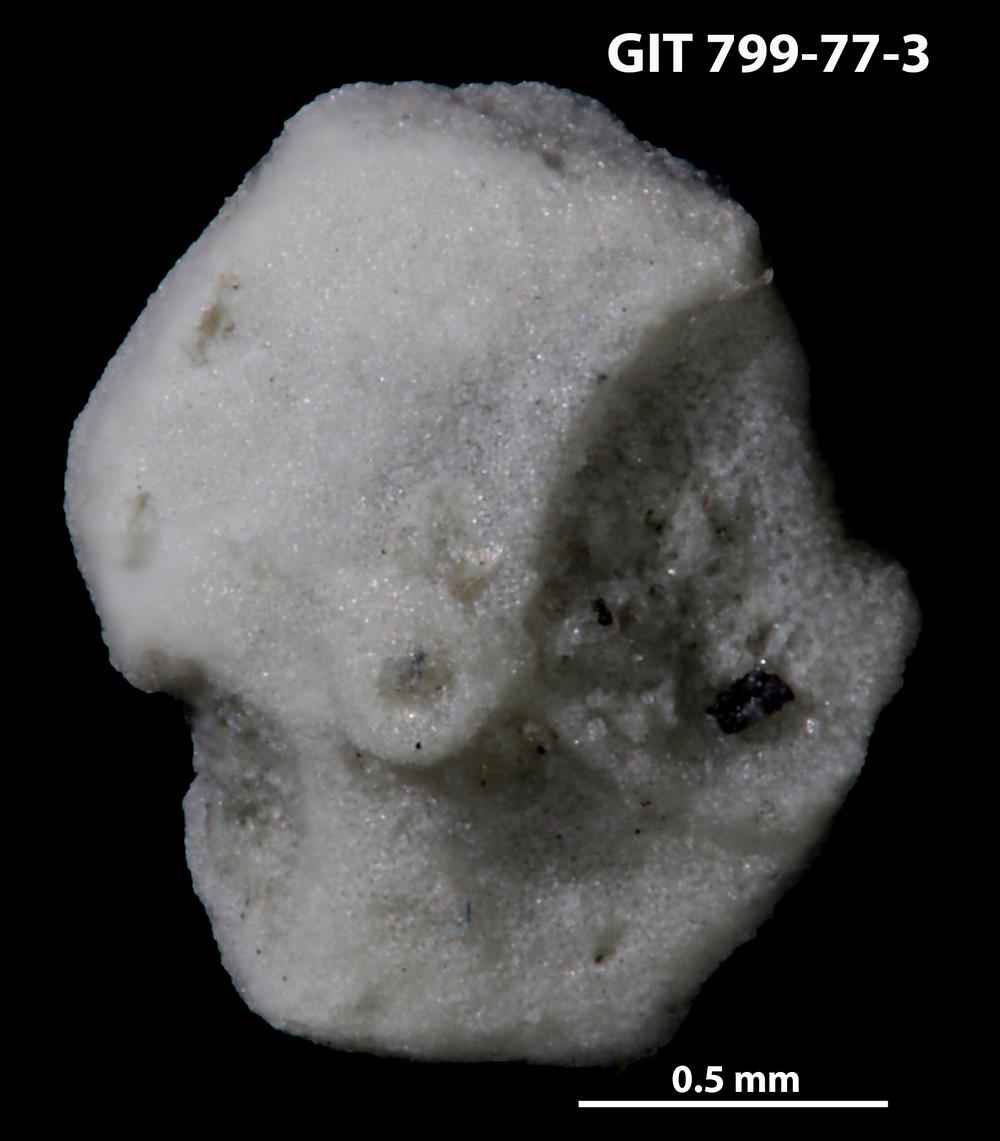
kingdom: Animalia
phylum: Echinodermata
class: Echinoidea
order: Bothriocidaroida
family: Bothriocidaridae
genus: Neobothriocidaris
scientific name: Neobothriocidaris
